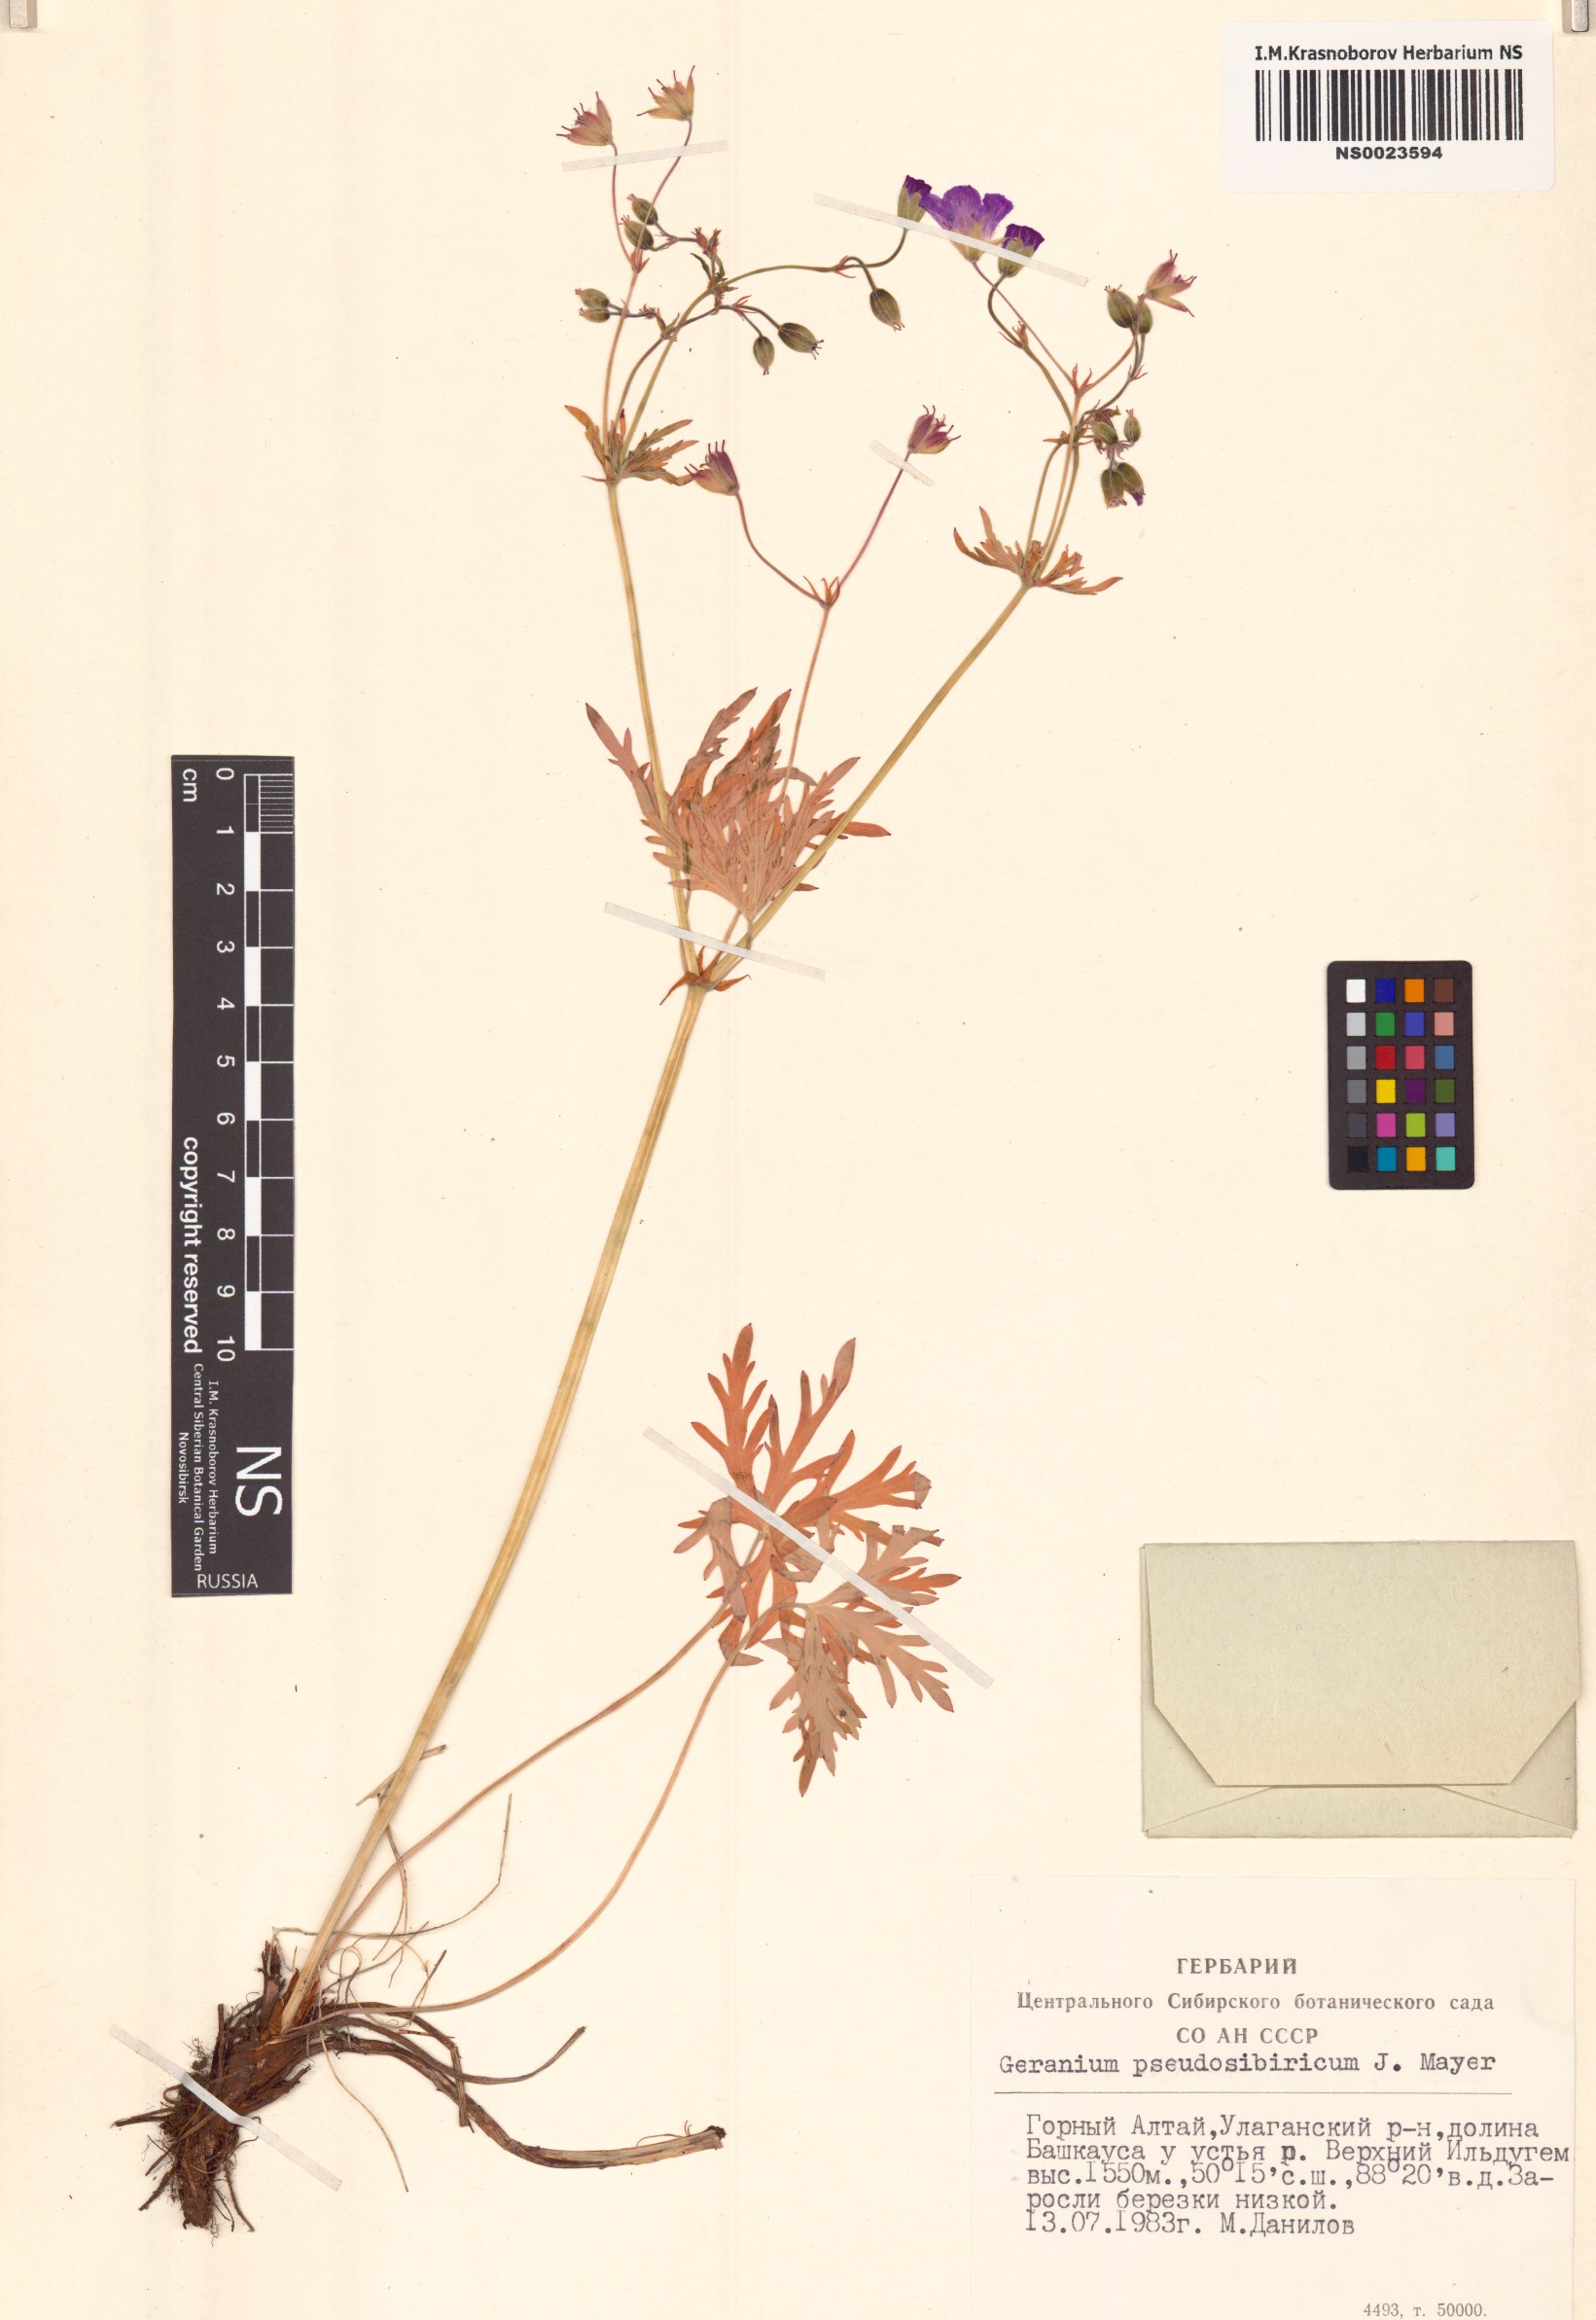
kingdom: Plantae
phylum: Tracheophyta
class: Magnoliopsida
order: Geraniales
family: Geraniaceae
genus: Geranium
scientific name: Geranium pseudosibiricum
